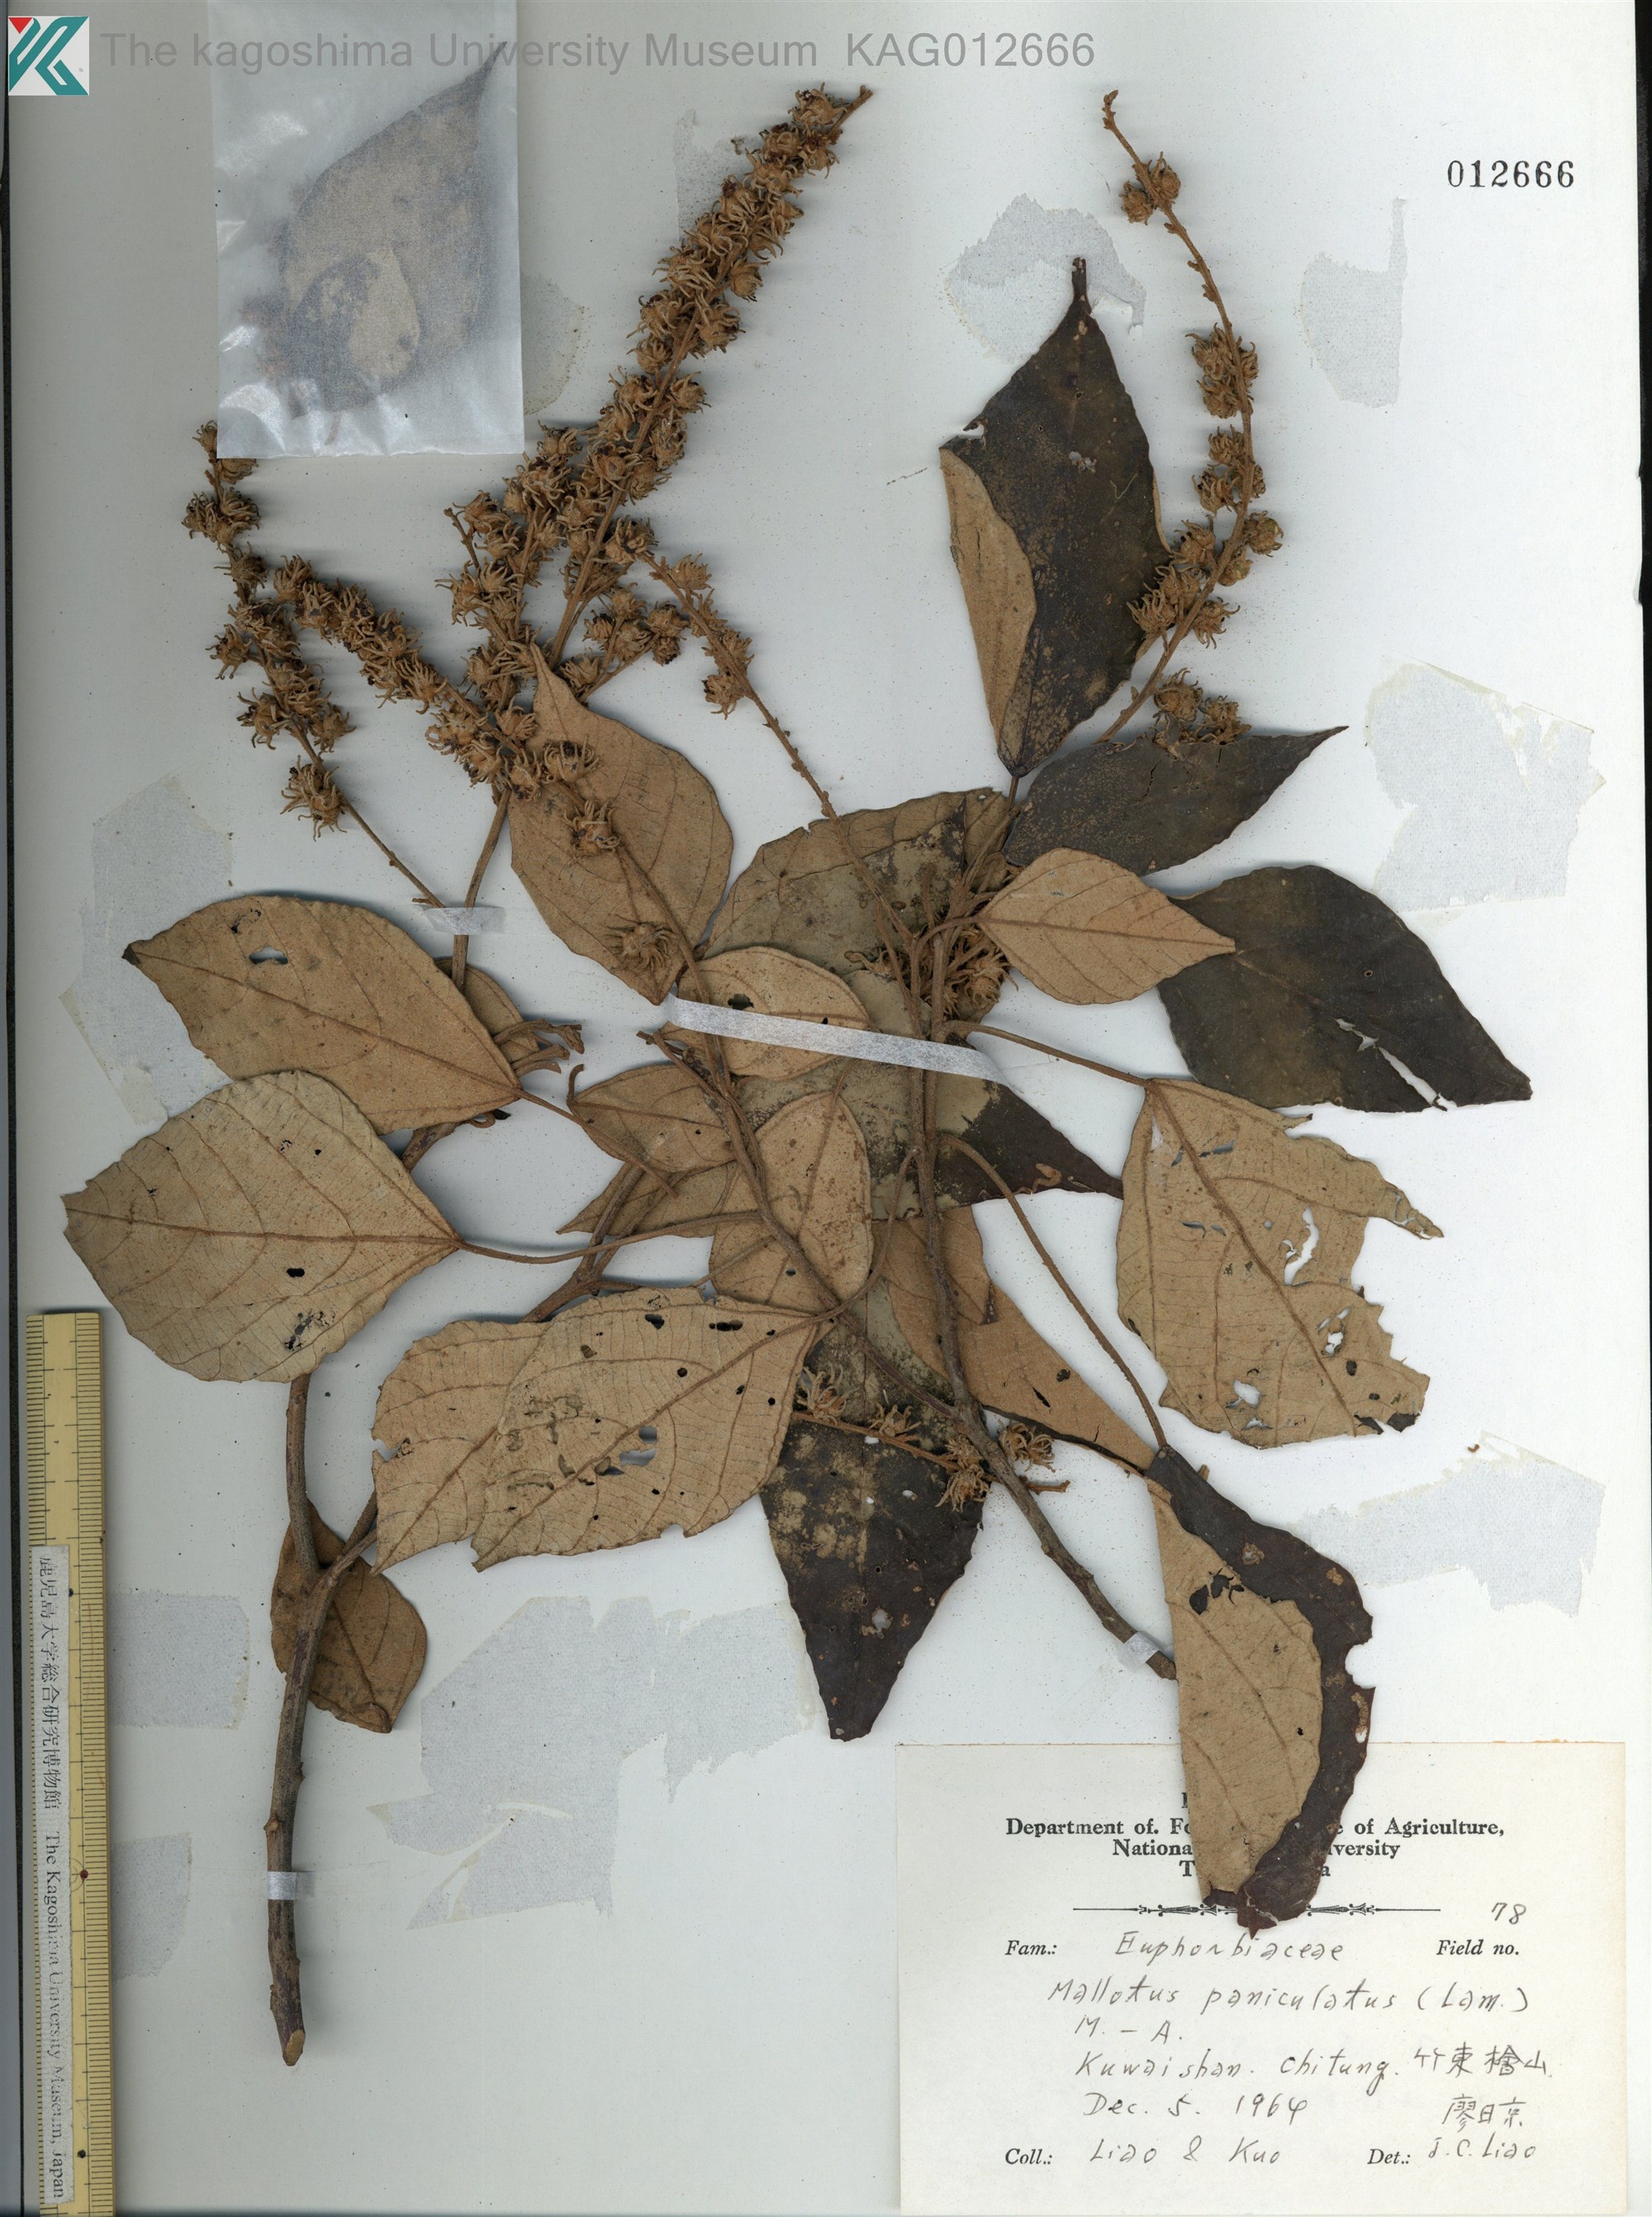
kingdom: Plantae
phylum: Tracheophyta
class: Magnoliopsida
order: Malpighiales
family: Euphorbiaceae
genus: Mallotus
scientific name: Mallotus paniculatus
